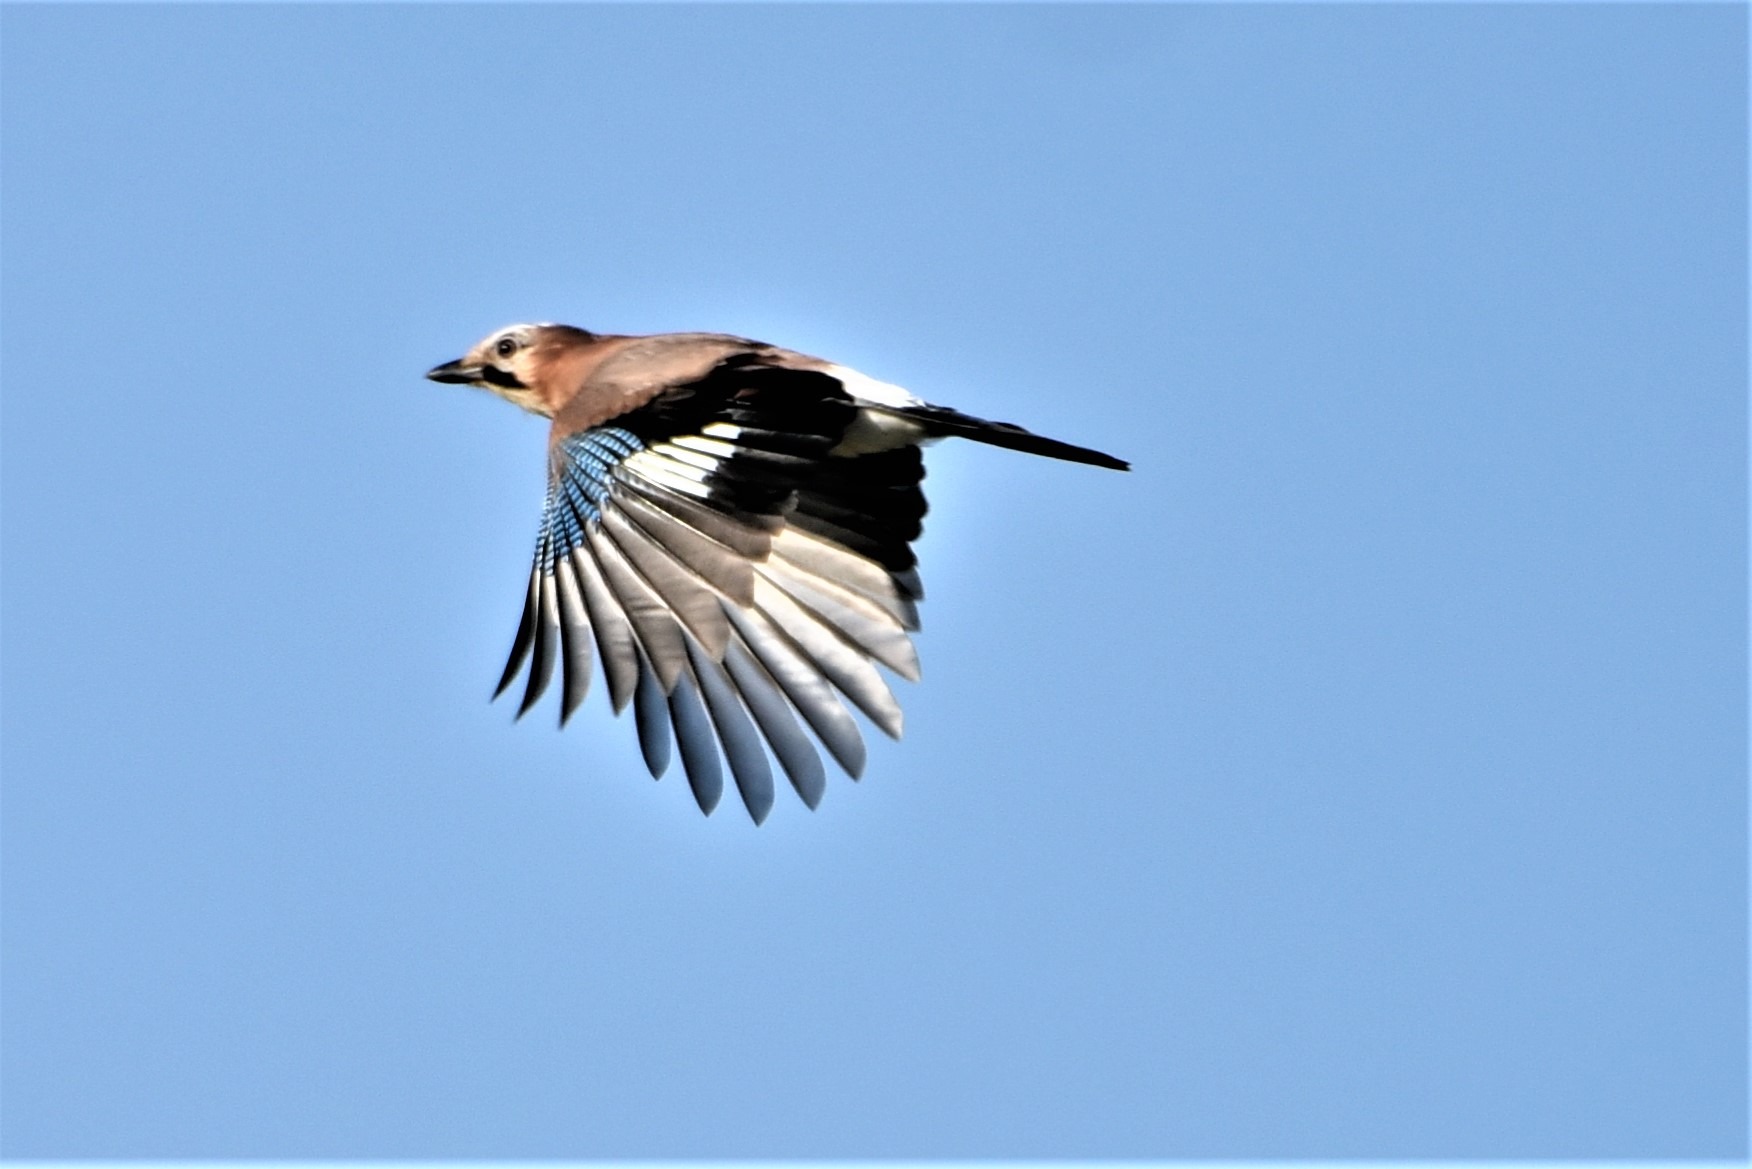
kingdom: Animalia
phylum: Chordata
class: Aves
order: Passeriformes
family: Corvidae
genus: Garrulus
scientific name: Garrulus glandarius
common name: Skovskade
